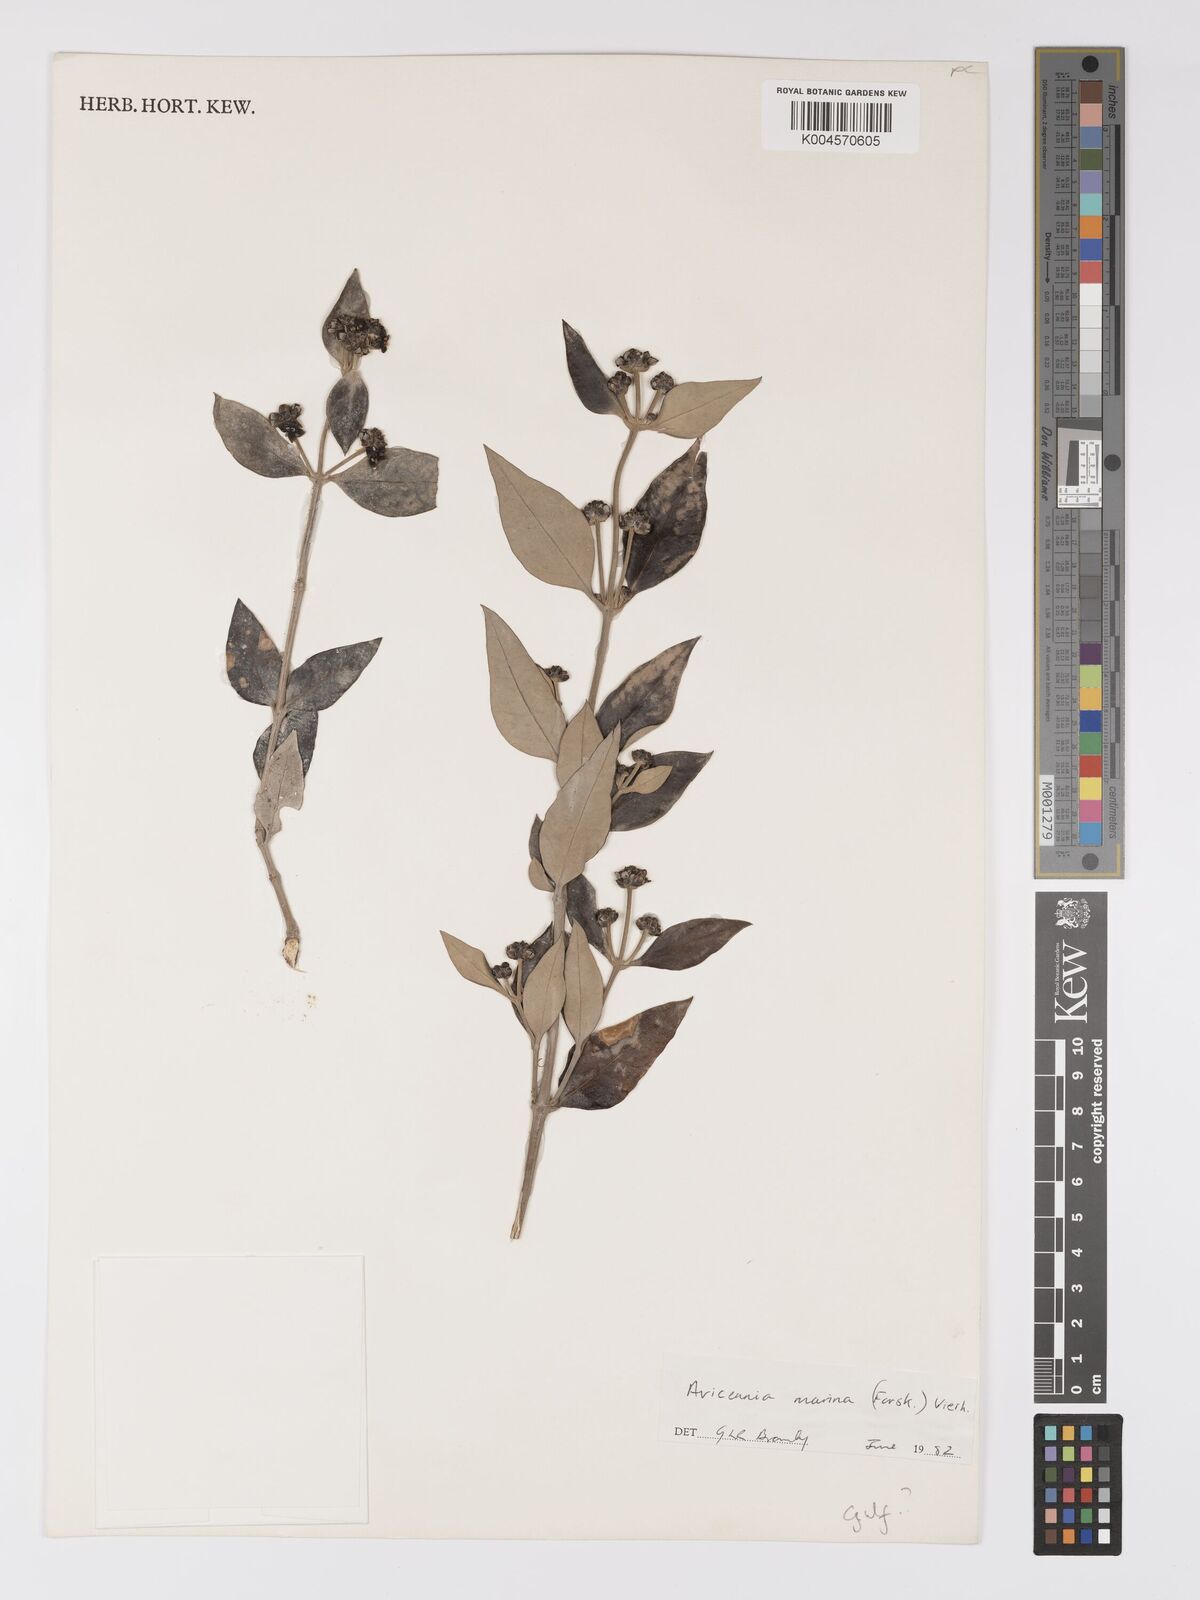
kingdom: Plantae
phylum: Tracheophyta
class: Magnoliopsida
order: Lamiales
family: Acanthaceae
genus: Avicennia
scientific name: Avicennia marina
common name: Gray mangrove
